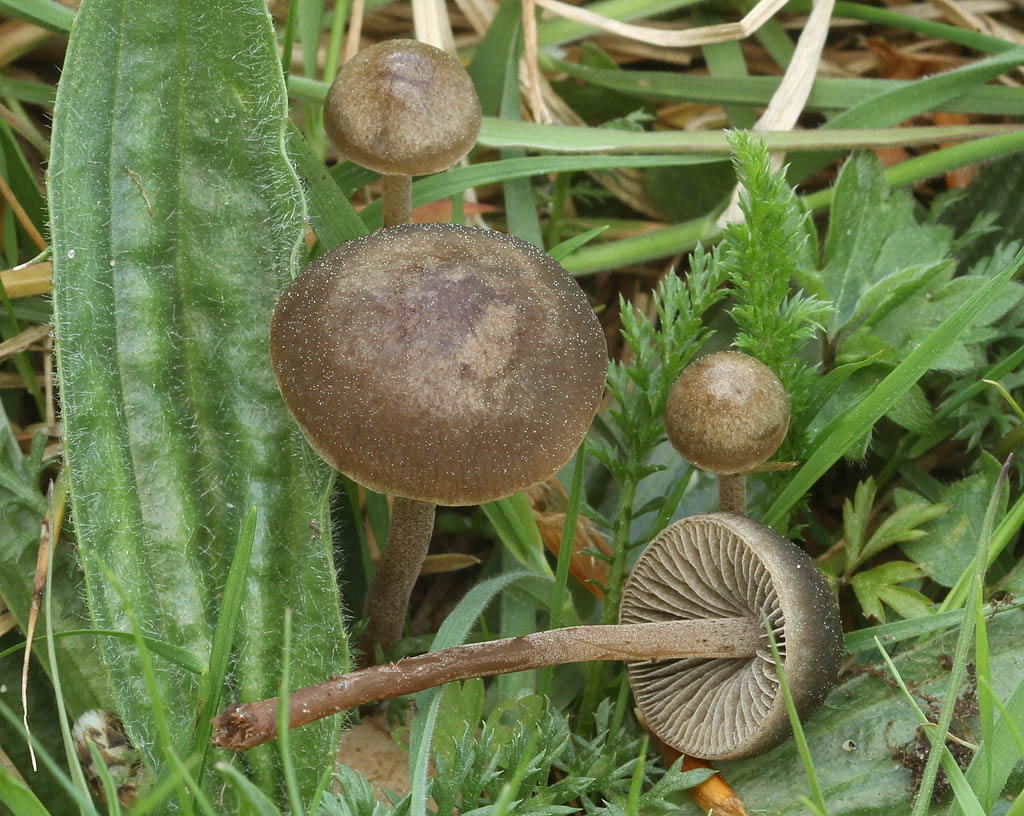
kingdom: Fungi
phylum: Basidiomycota
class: Agaricomycetes
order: Agaricales
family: Bolbitiaceae
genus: Panaeolus
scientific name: Panaeolus fimicola
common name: tidlig glanshat
